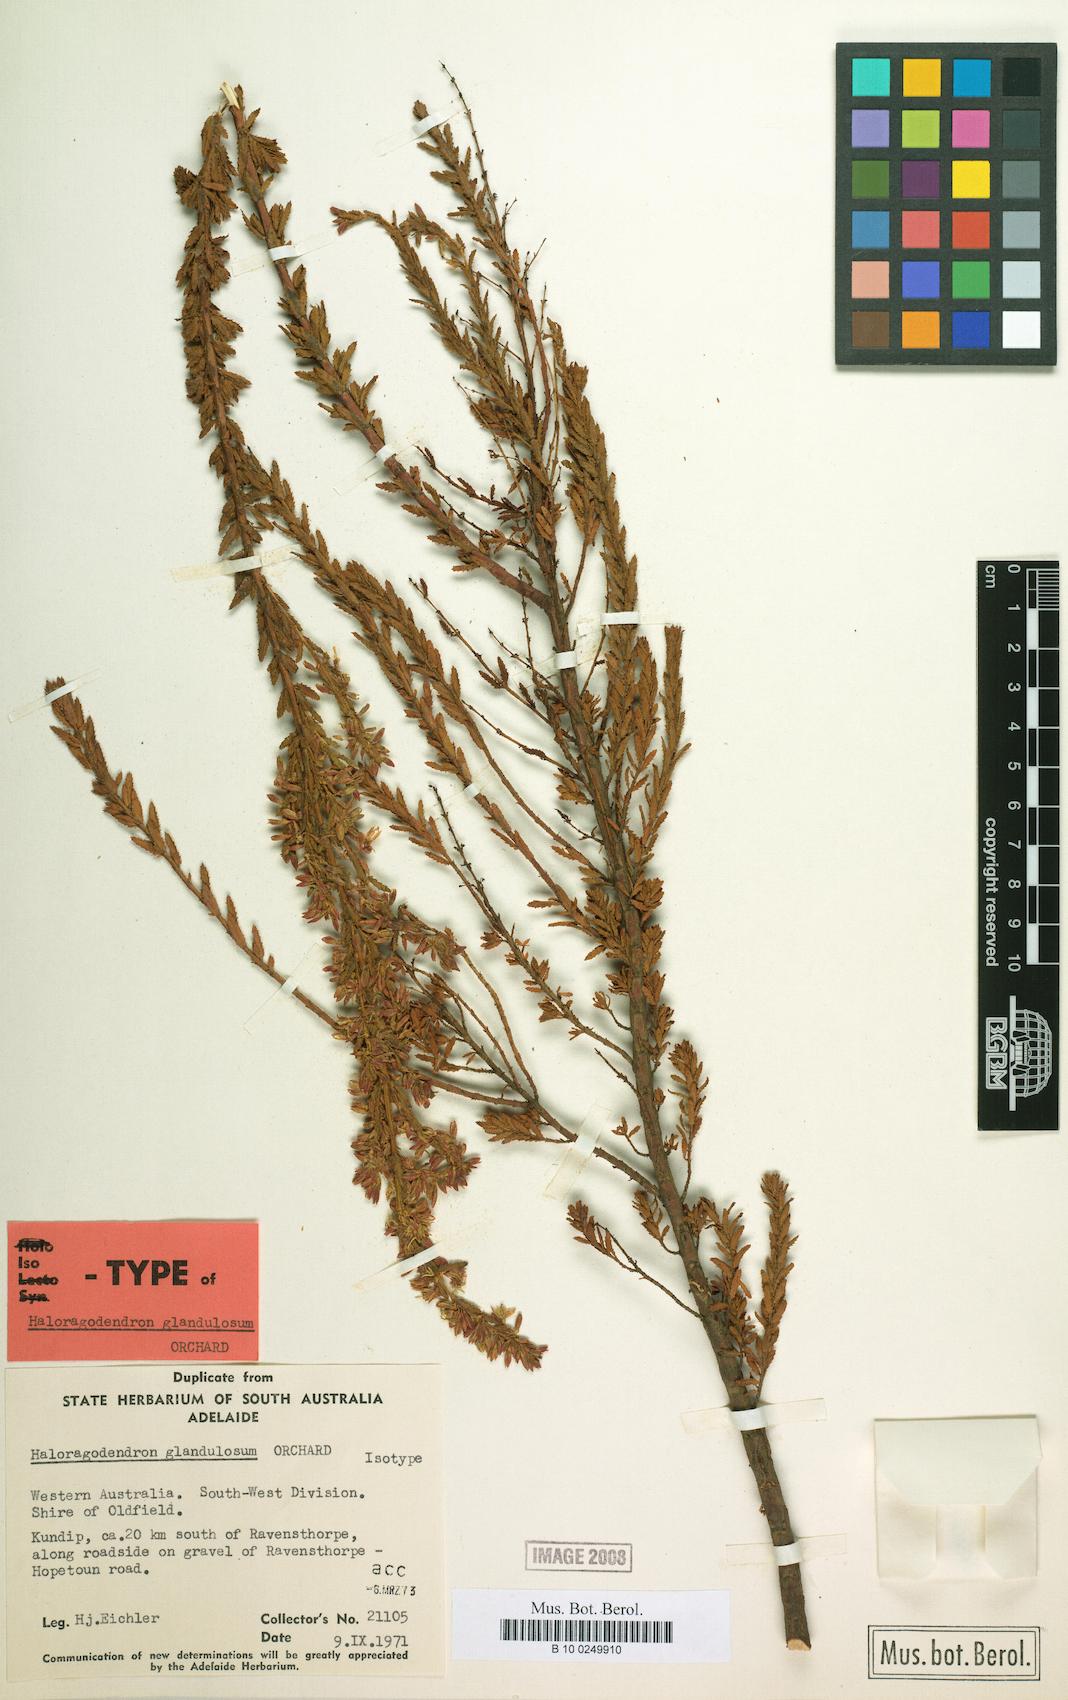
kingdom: Plantae
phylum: Tracheophyta
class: Magnoliopsida
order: Saxifragales
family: Haloragaceae
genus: Glischrocaryon
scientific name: Glischrocaryon glandulosum
